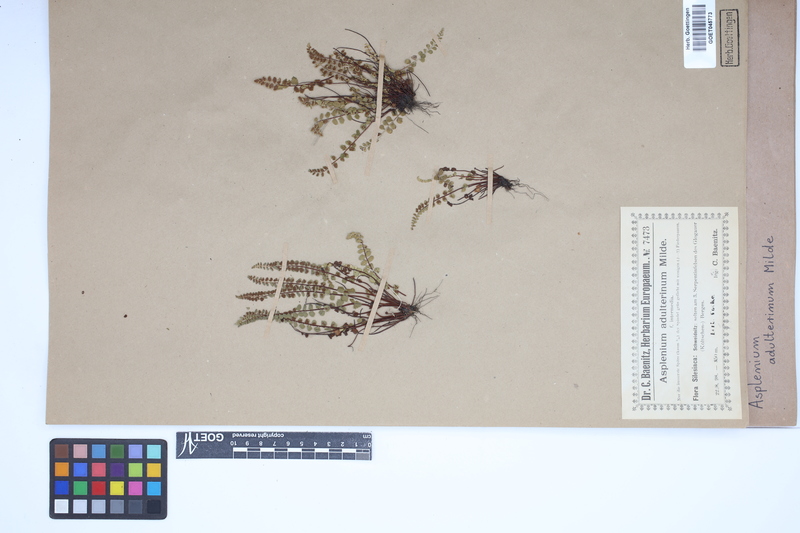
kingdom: Plantae
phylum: Tracheophyta
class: Polypodiopsida
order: Polypodiales
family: Aspleniaceae
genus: Asplenium
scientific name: Asplenium adulterinum
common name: Adulterated spleenwort
